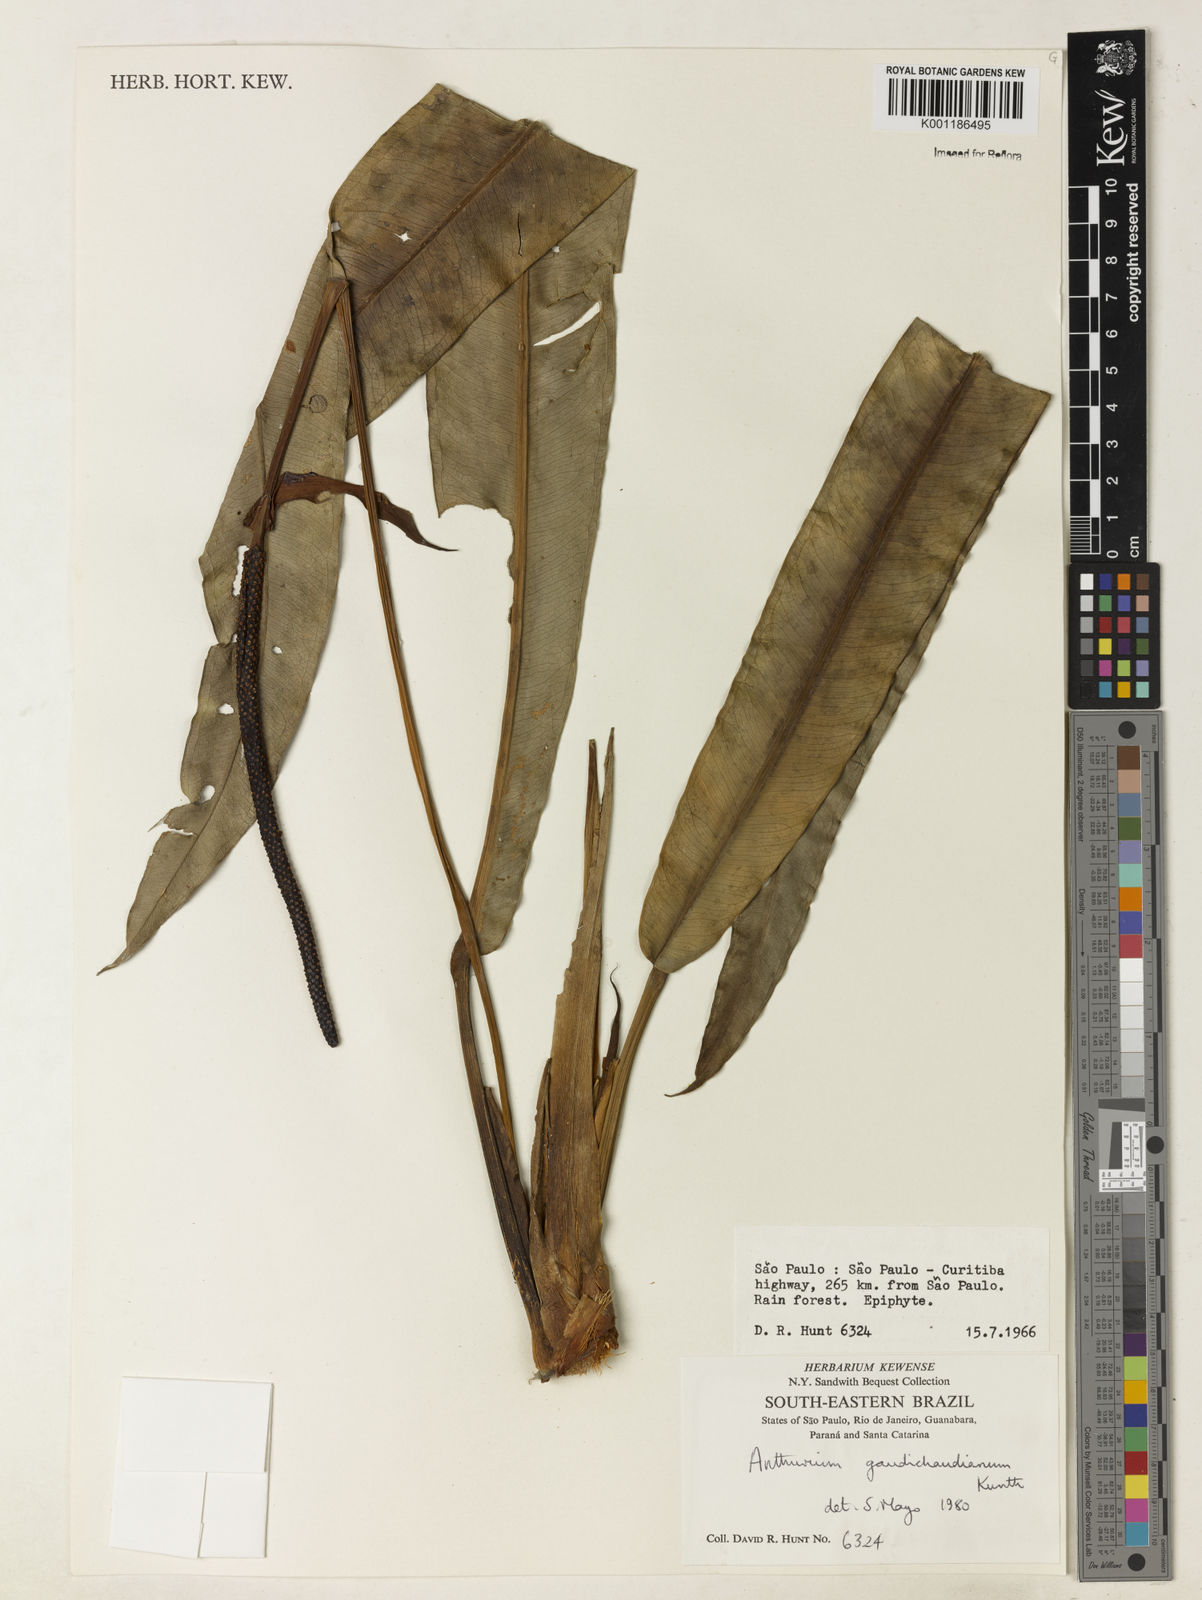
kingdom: Plantae
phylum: Tracheophyta
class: Liliopsida
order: Alismatales
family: Araceae
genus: Anthurium
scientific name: Anthurium gaudichaudianum
